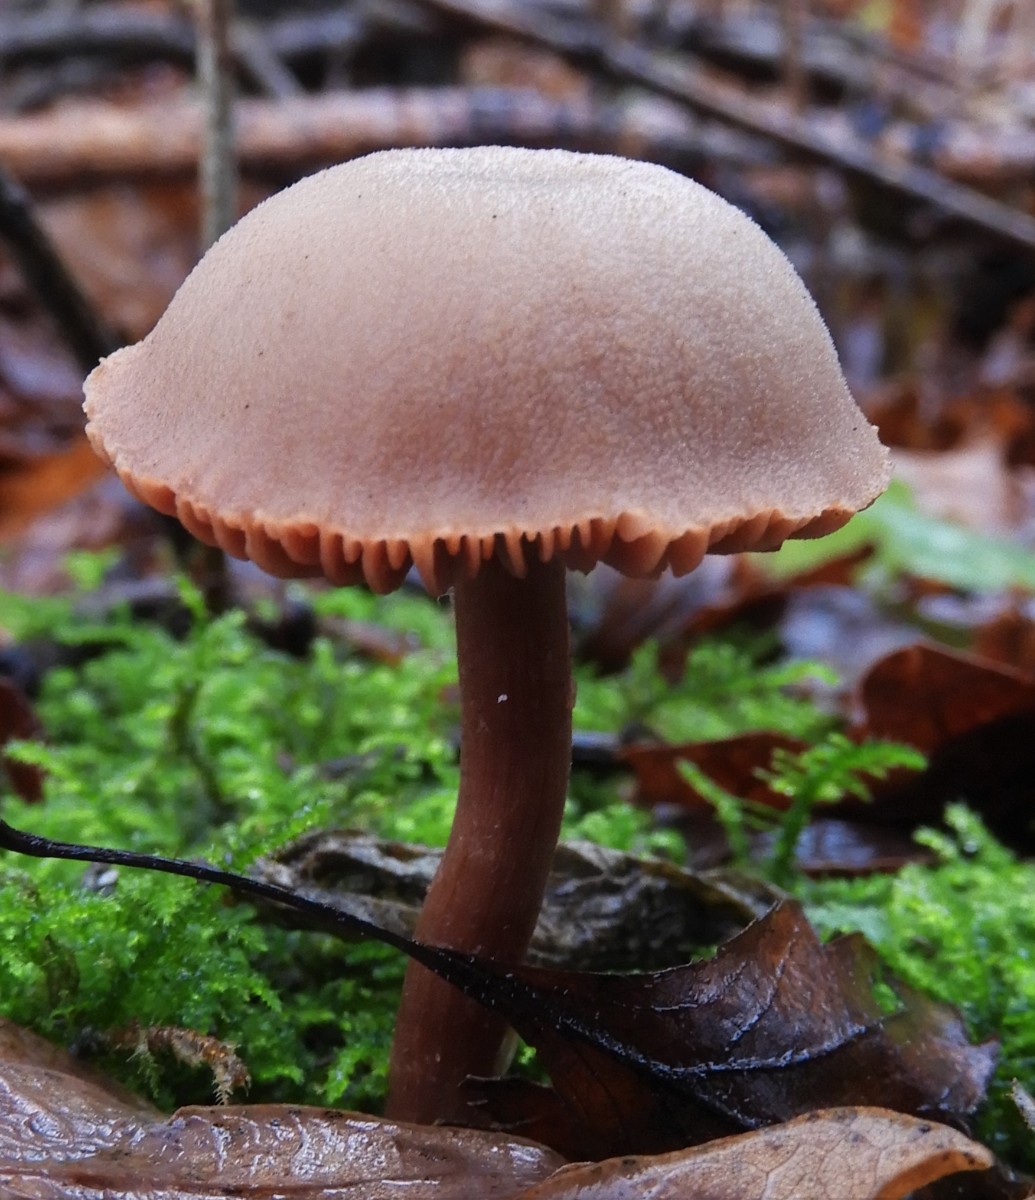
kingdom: Fungi
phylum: Basidiomycota
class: Agaricomycetes
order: Agaricales
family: Hydnangiaceae
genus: Laccaria
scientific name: Laccaria laccata
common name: rød ametysthat
